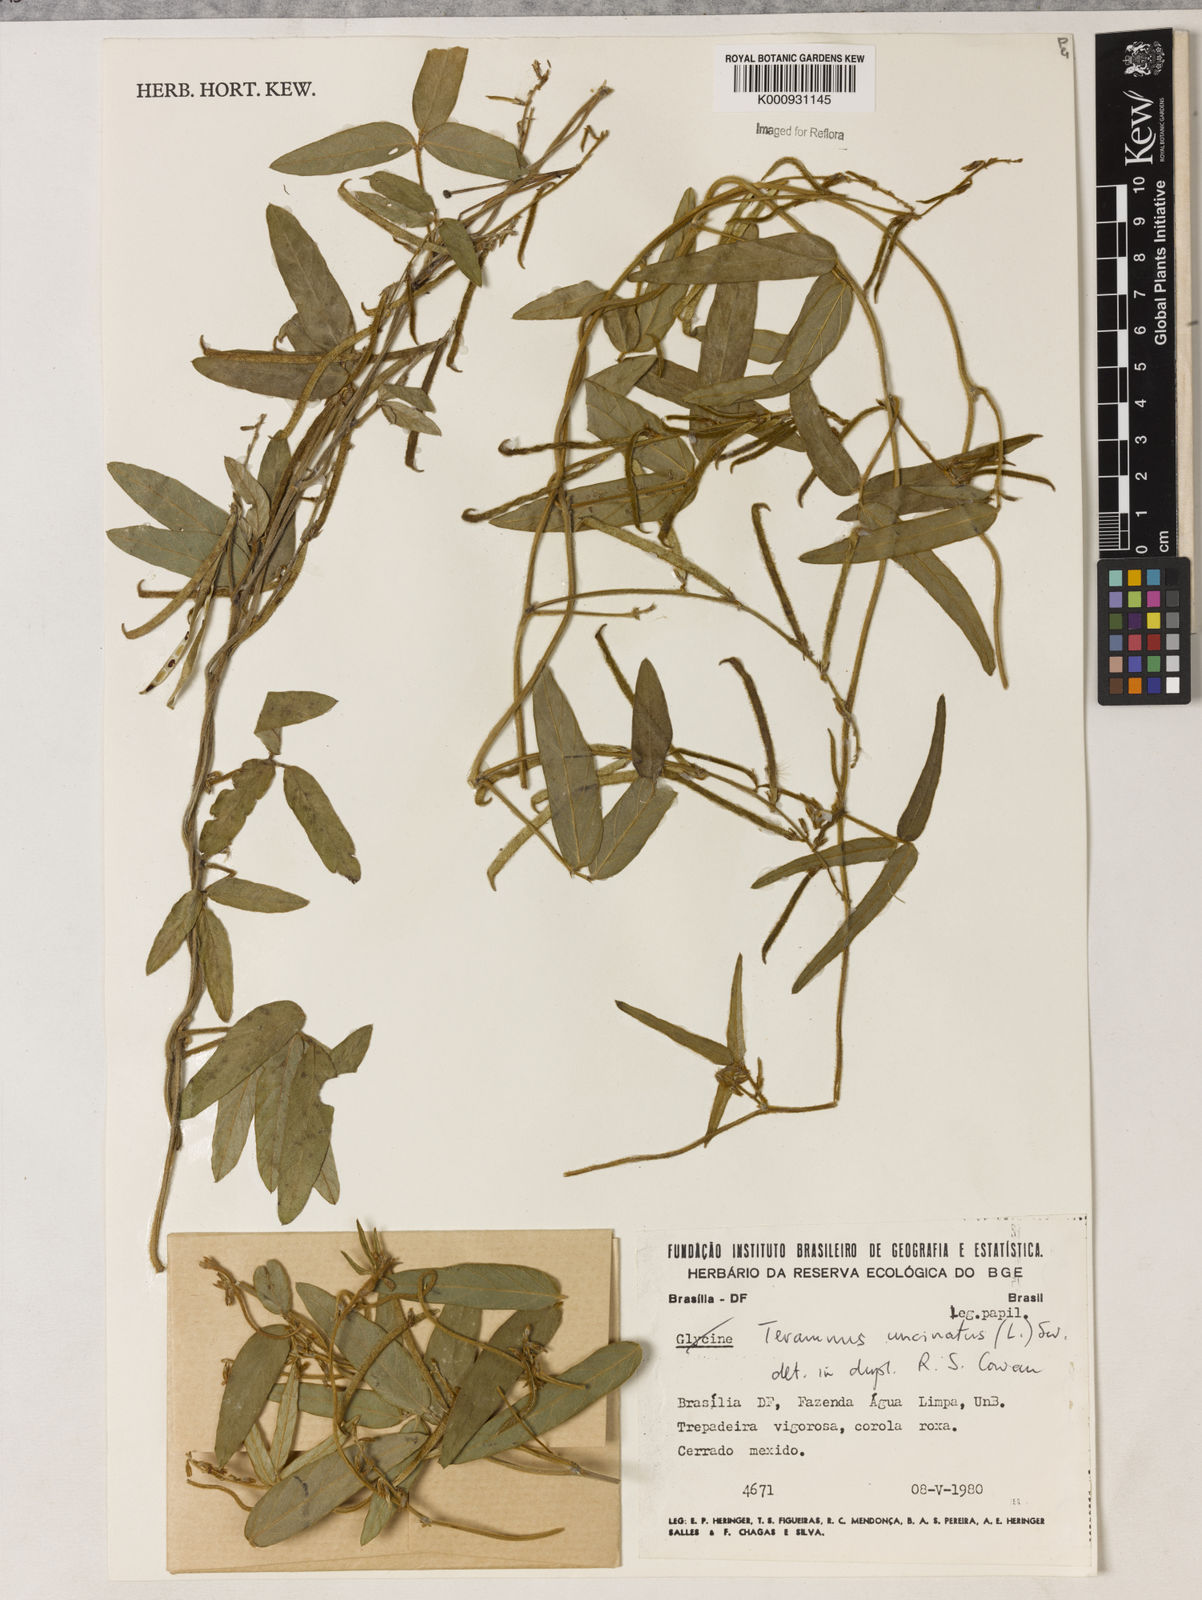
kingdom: Plantae
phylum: Tracheophyta
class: Magnoliopsida
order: Fabales
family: Fabaceae
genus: Teramnus
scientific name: Teramnus uncinatus
